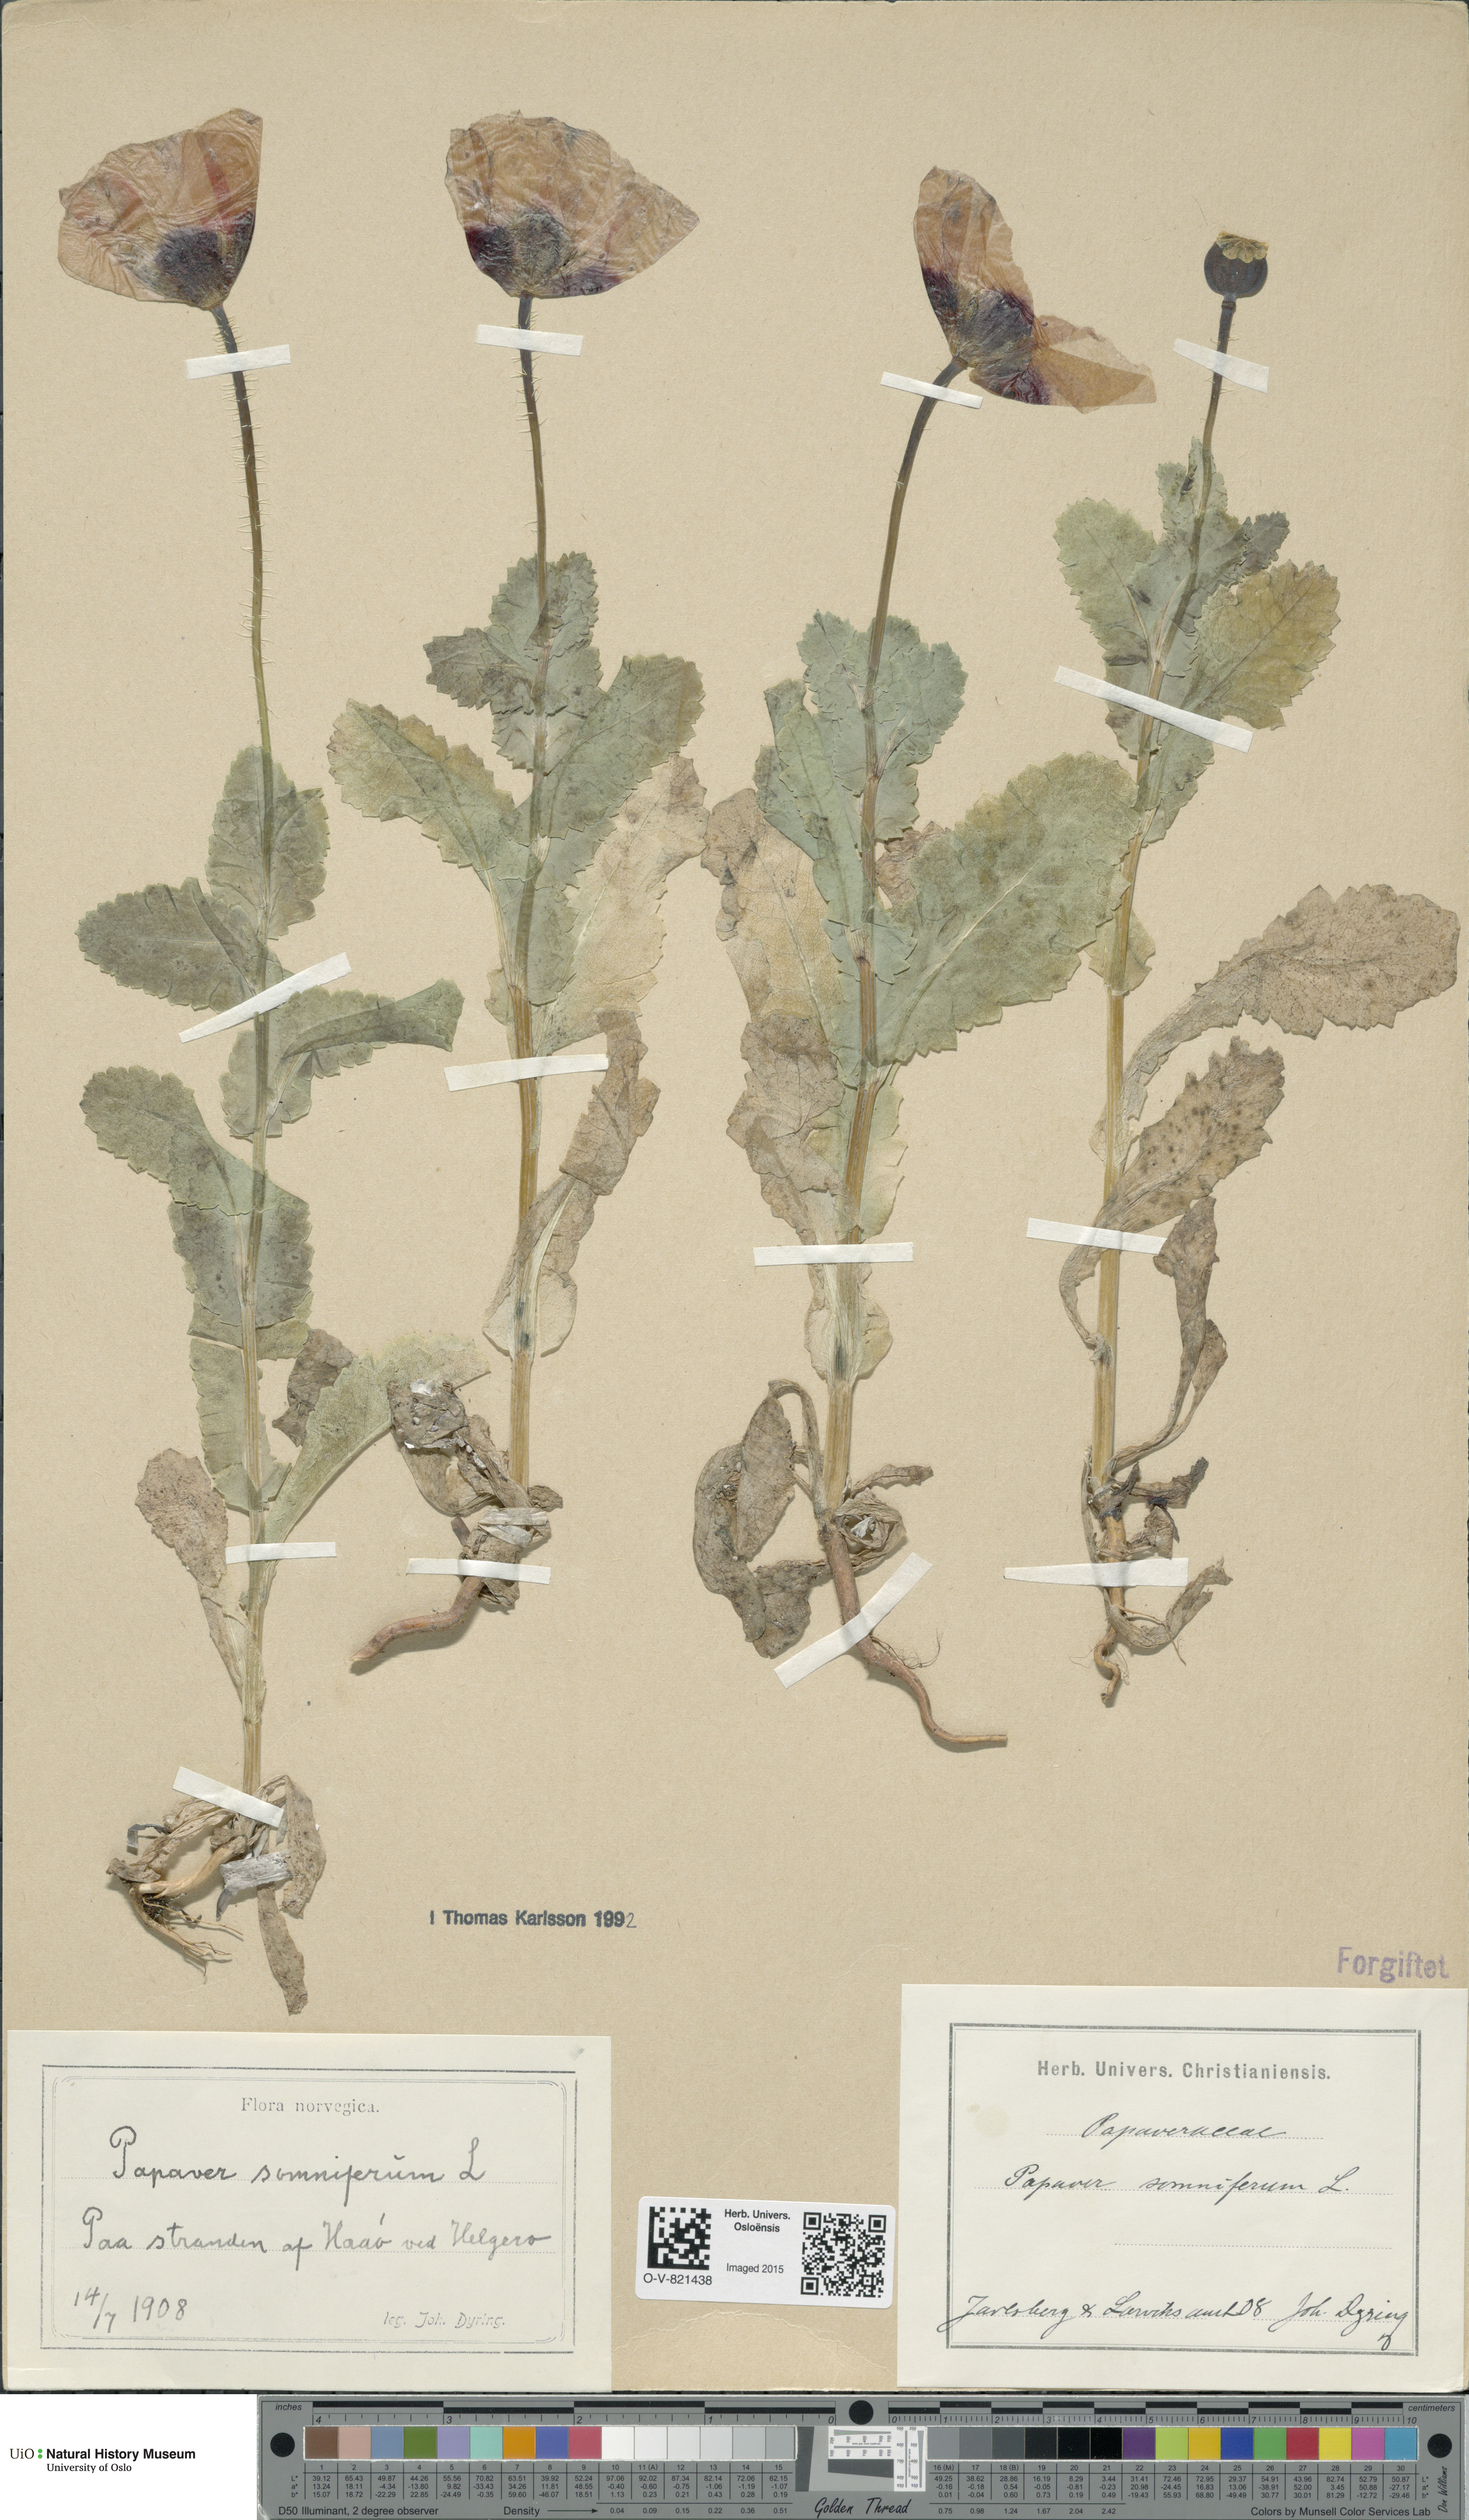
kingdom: Plantae
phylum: Tracheophyta
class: Magnoliopsida
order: Ranunculales
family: Papaveraceae
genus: Papaver
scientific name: Papaver somniferum
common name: Opium poppy
